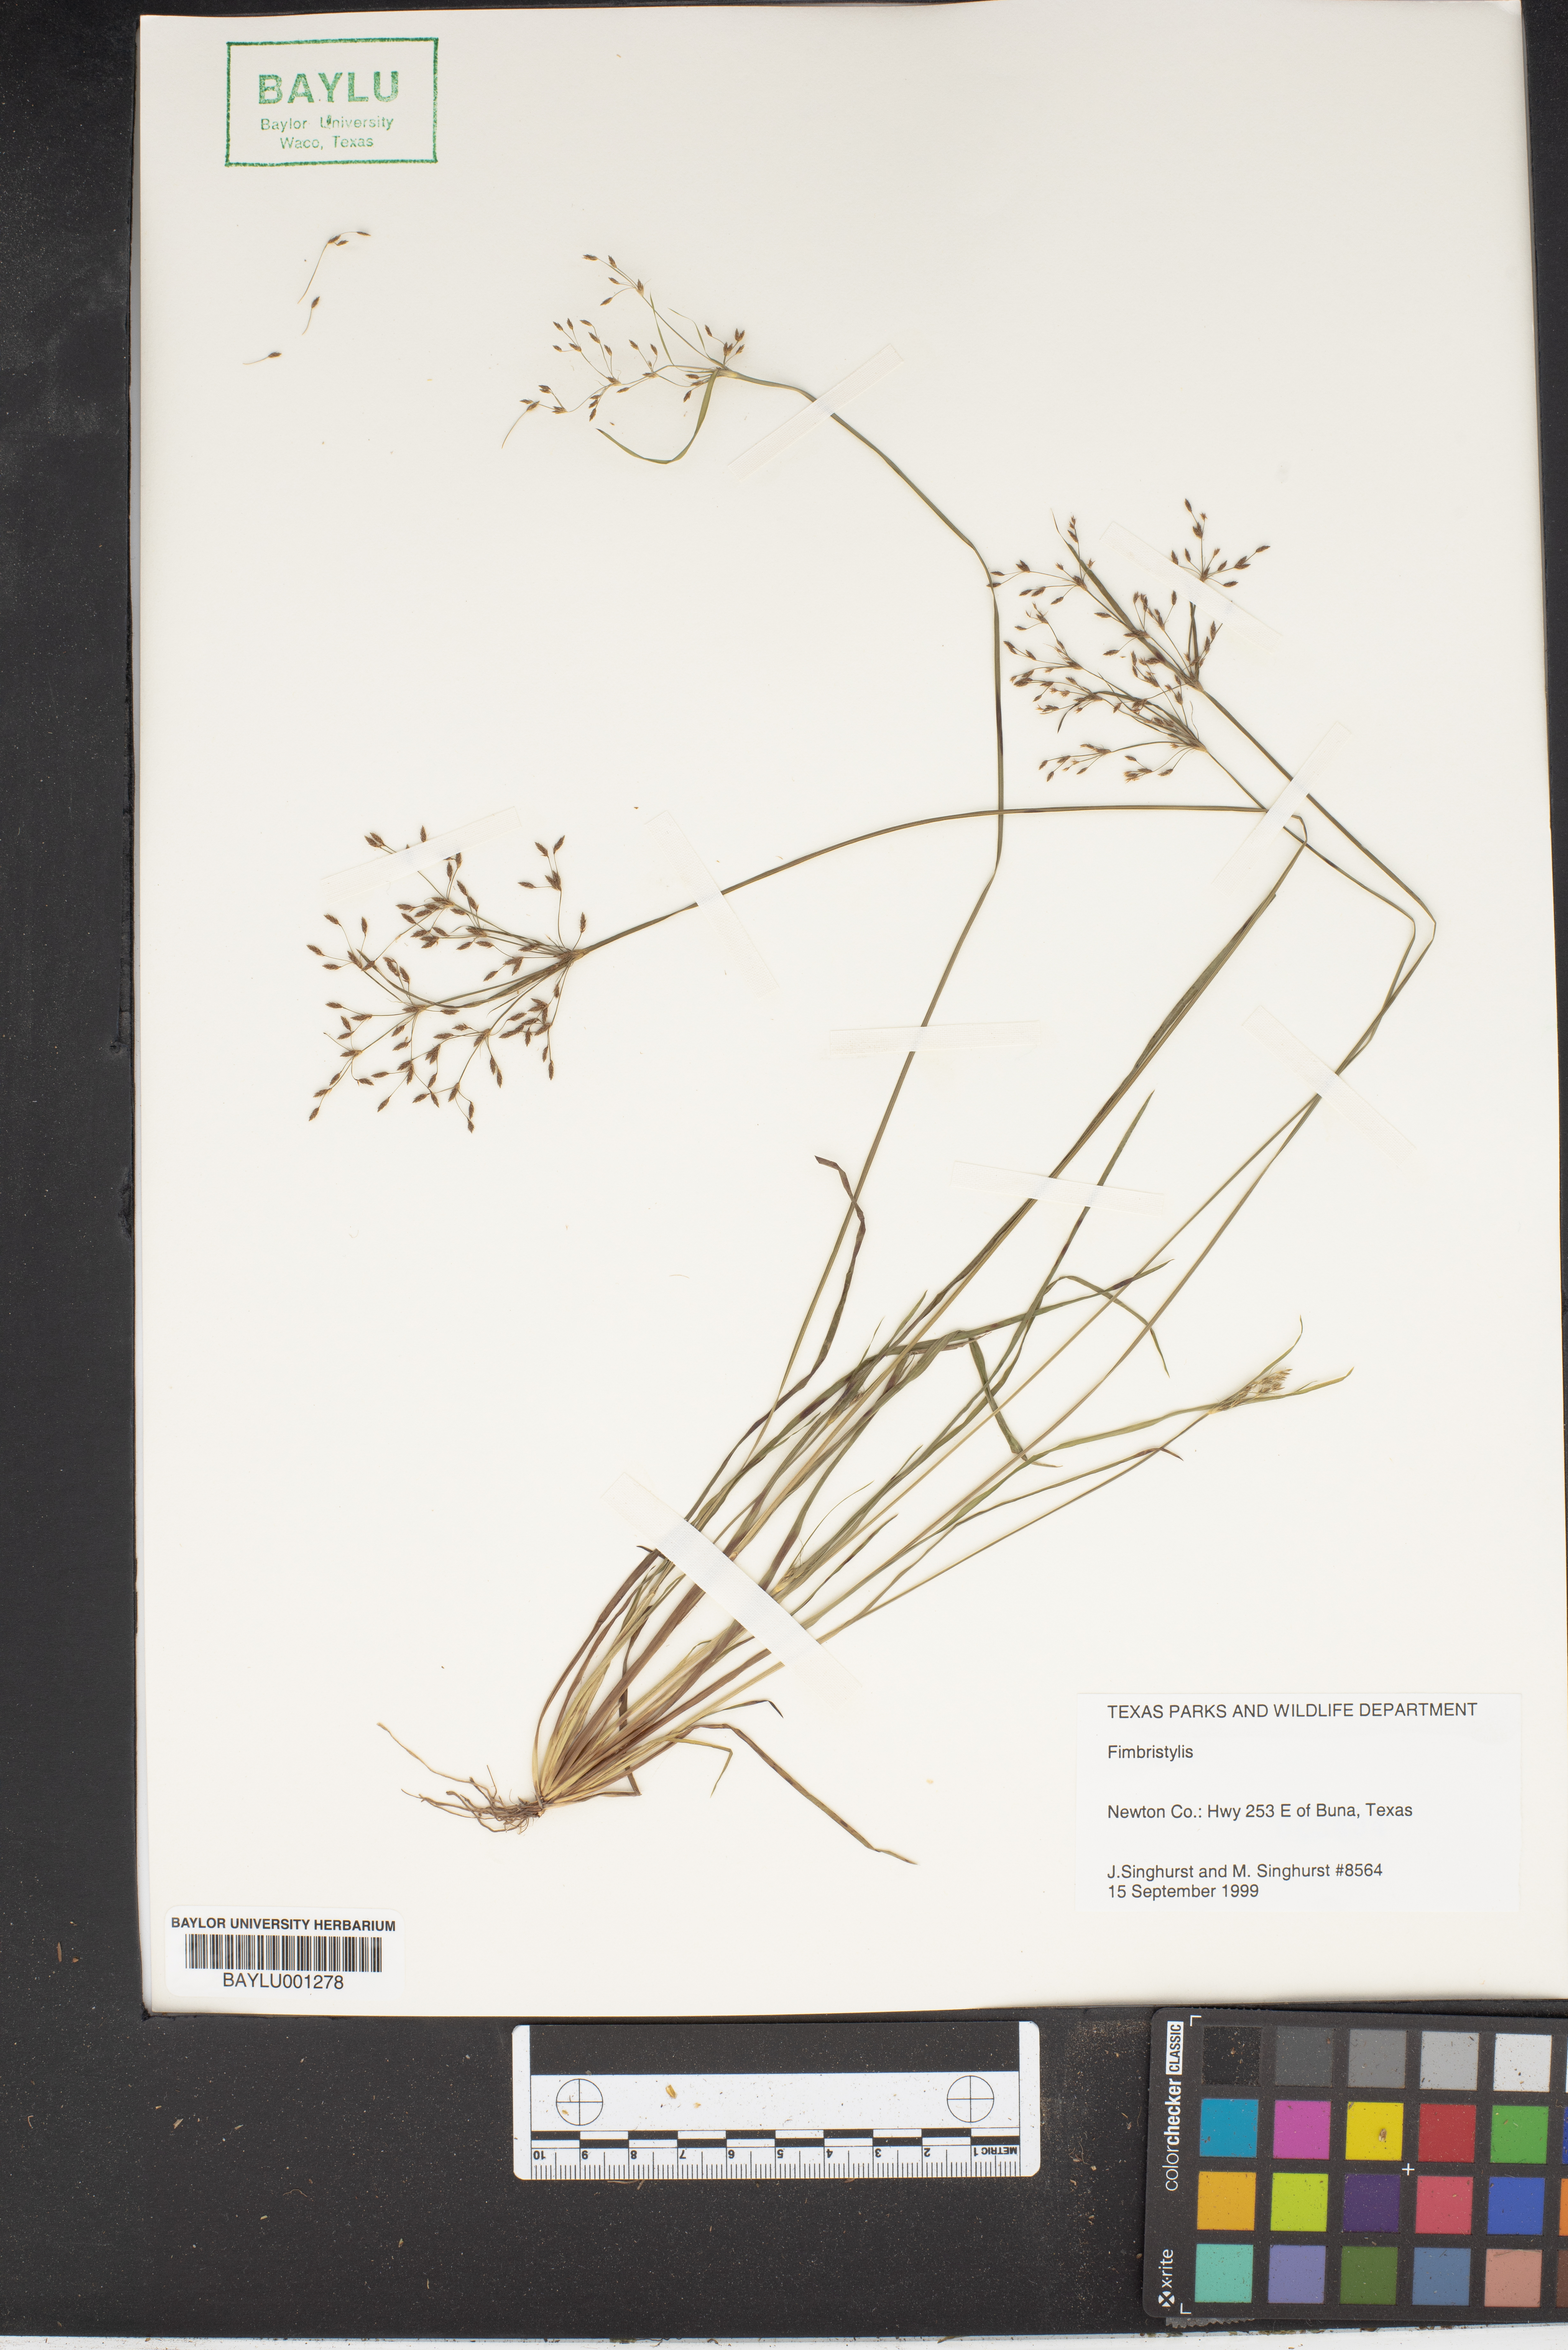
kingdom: Plantae
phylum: Tracheophyta
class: Liliopsida
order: Poales
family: Cyperaceae
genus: Fimbristylis
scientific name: Fimbristylis
